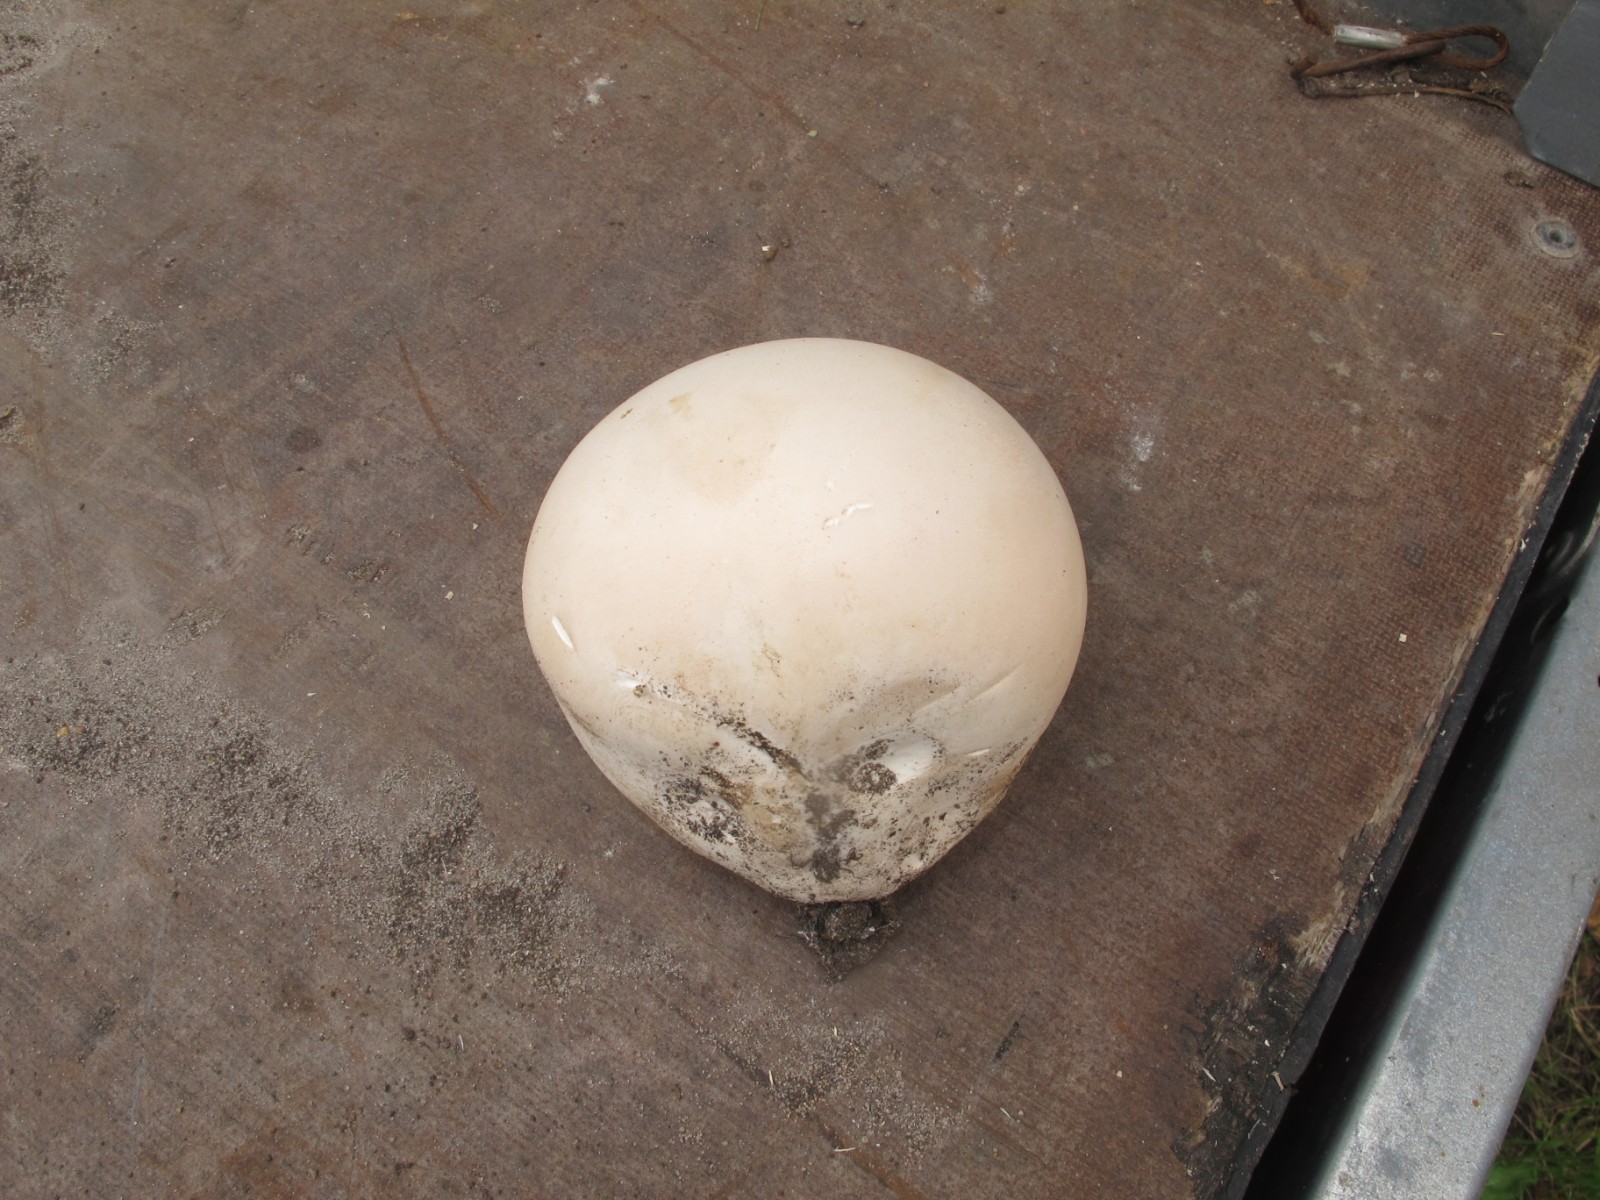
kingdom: Fungi
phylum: Basidiomycota
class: Agaricomycetes
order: Agaricales
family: Lycoperdaceae
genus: Calvatia
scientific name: Calvatia gigantea
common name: kæmpestøvbold
